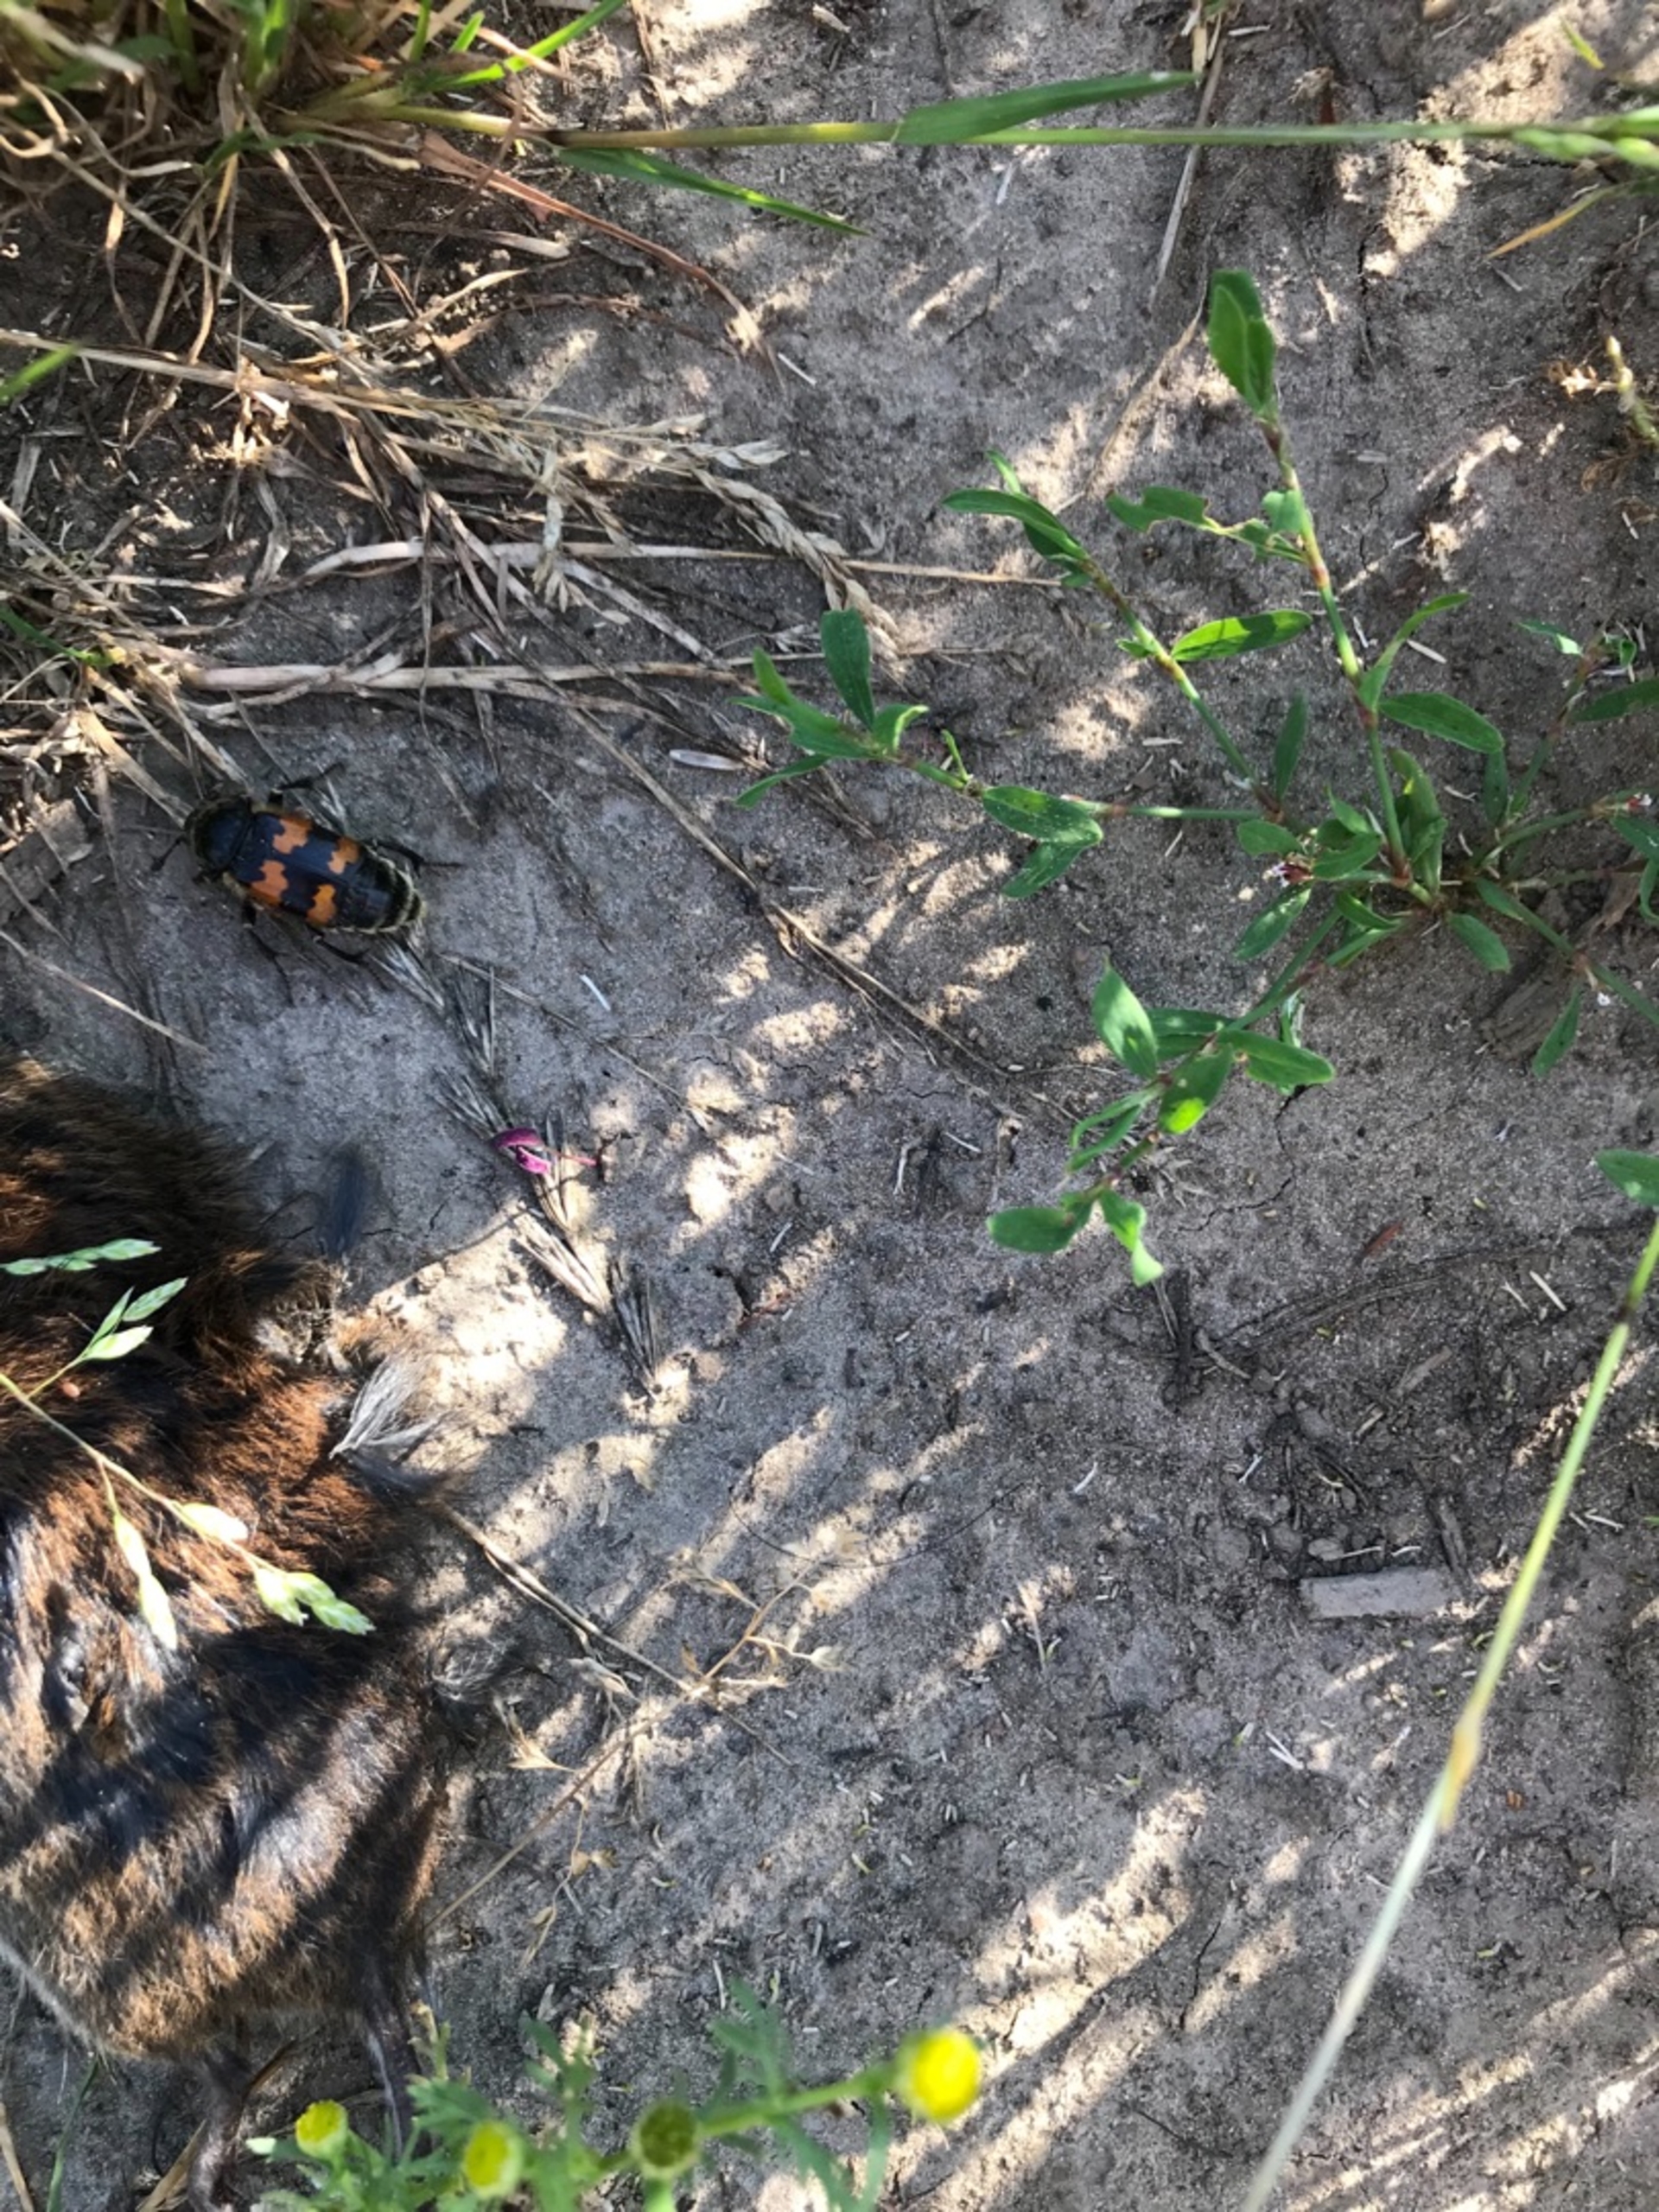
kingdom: Animalia
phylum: Arthropoda
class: Insecta
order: Coleoptera
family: Staphylinidae
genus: Nicrophorus
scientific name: Nicrophorus vespillo
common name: Krumbenet ådselgraver
